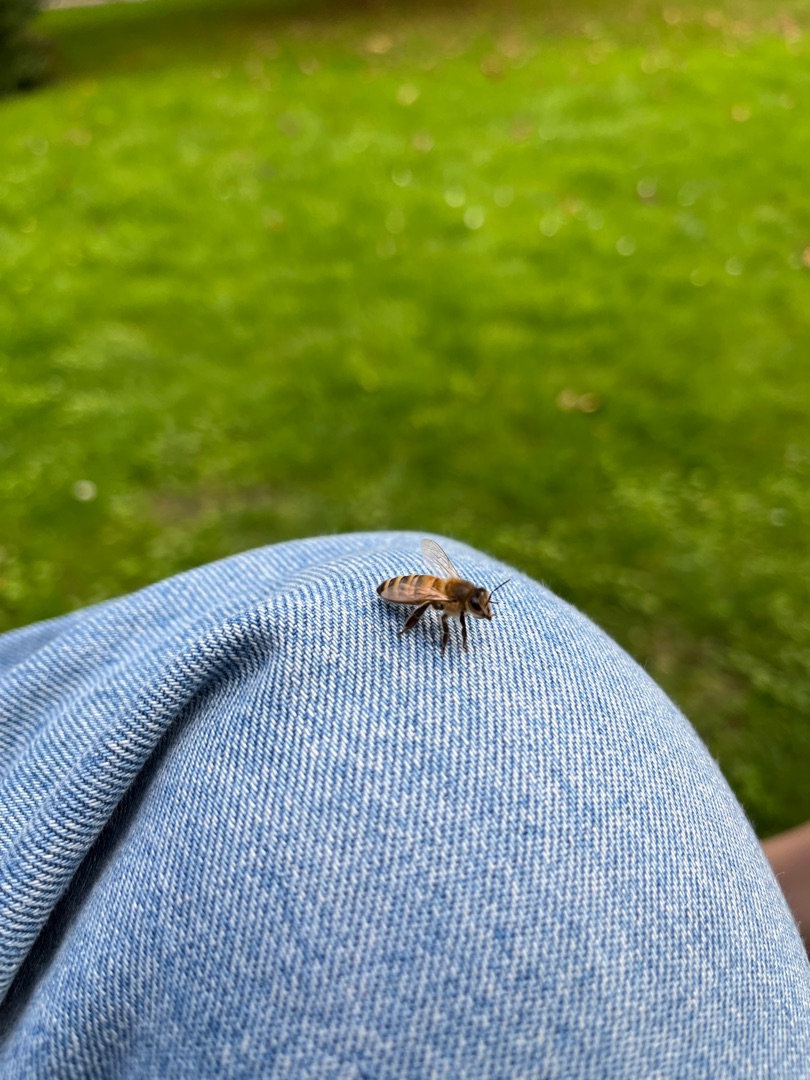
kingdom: Animalia
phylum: Arthropoda
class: Insecta
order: Hymenoptera
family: Apidae
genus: Apis
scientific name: Apis mellifera
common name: Honningbi
